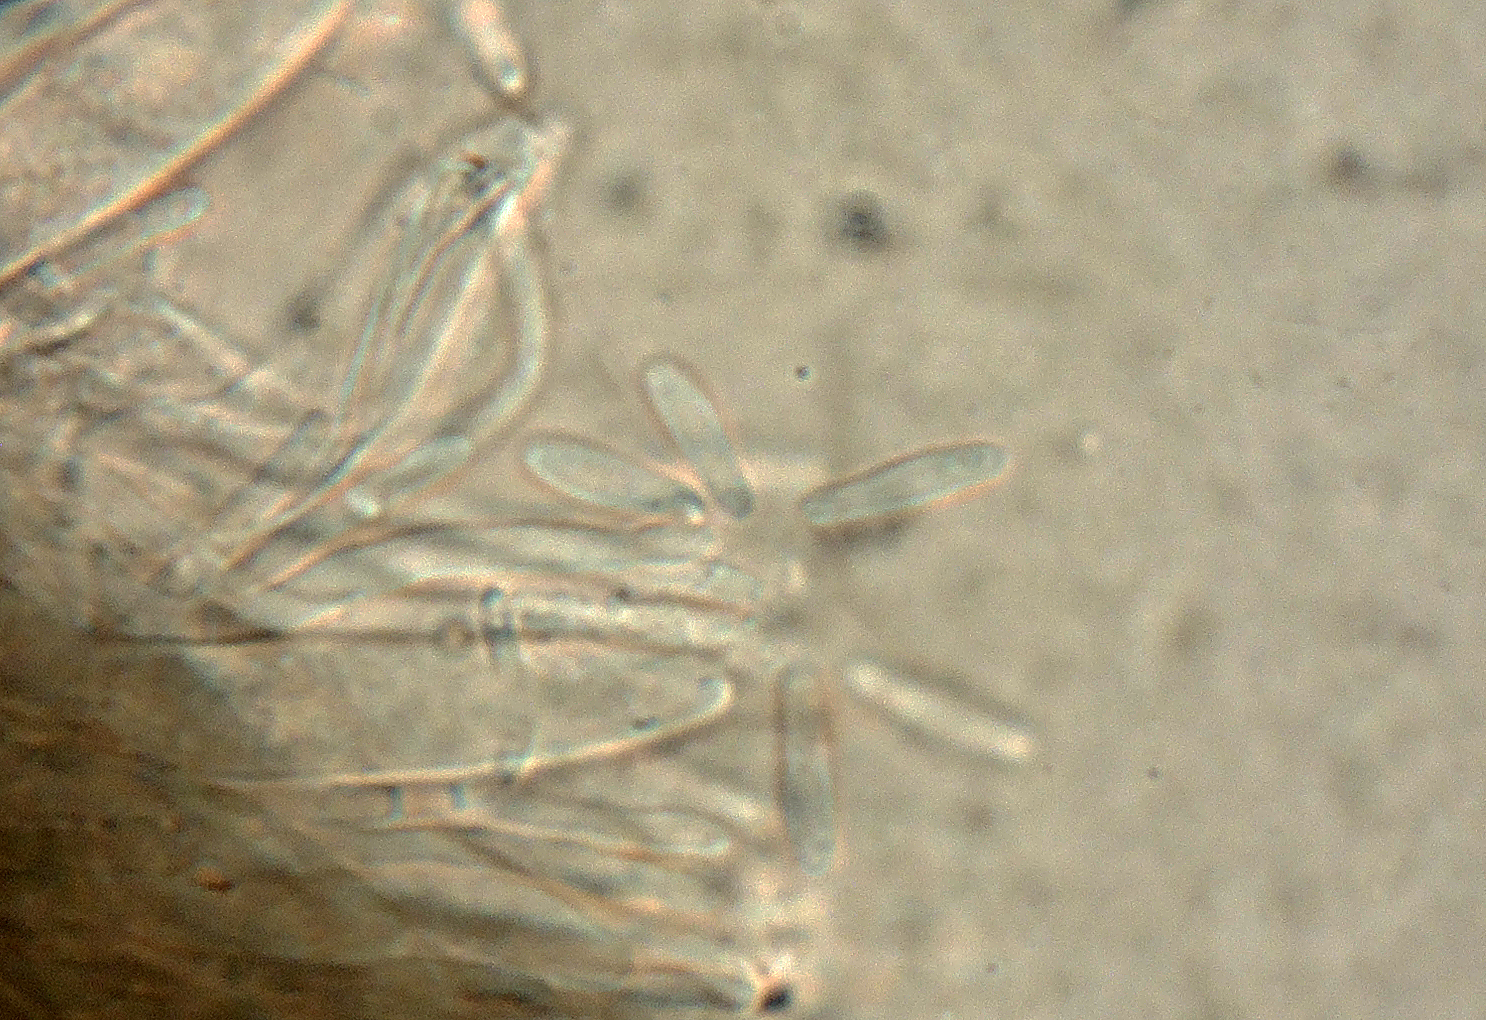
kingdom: Fungi
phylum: Ascomycota
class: Leotiomycetes
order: Helotiales
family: Ploettnerulaceae
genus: Pyrenopeziza
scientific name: Pyrenopeziza
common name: kerneskive
